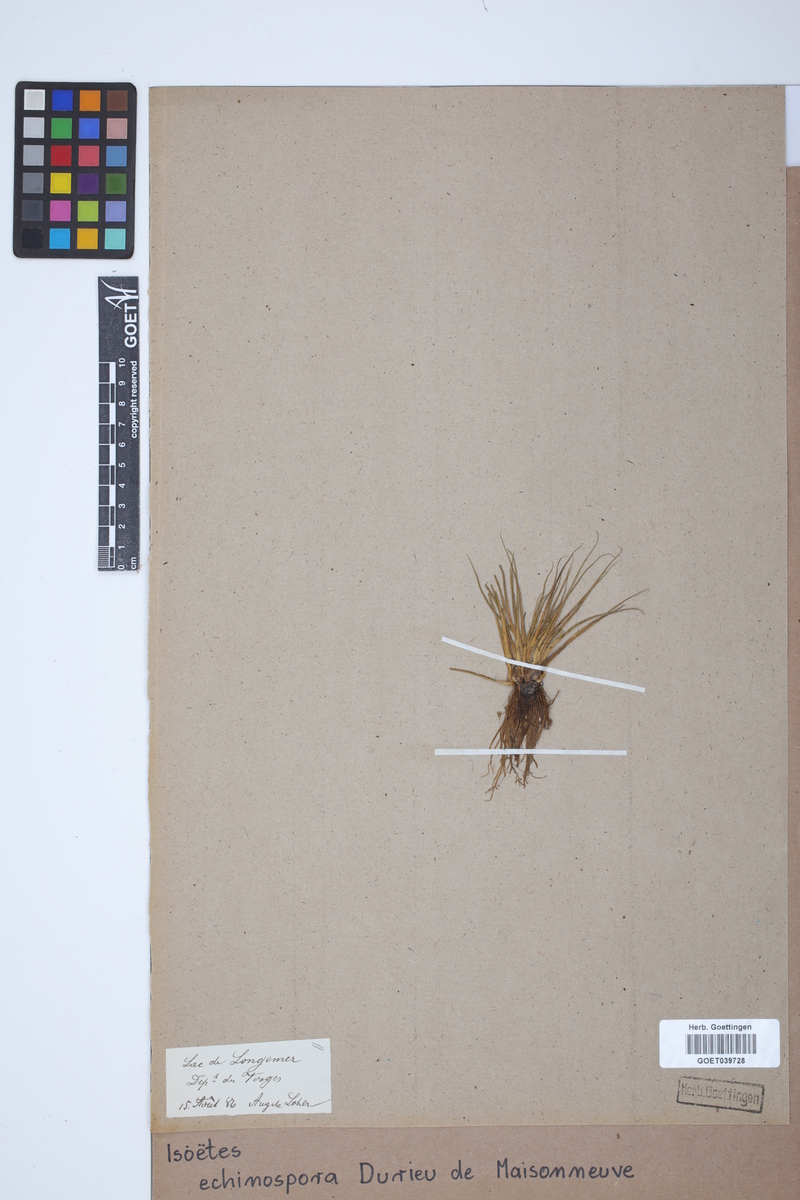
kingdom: Plantae
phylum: Tracheophyta
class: Lycopodiopsida
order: Isoetales
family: Isoetaceae
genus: Isoetes
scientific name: Isoetes echinospora
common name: Spring quillwort
